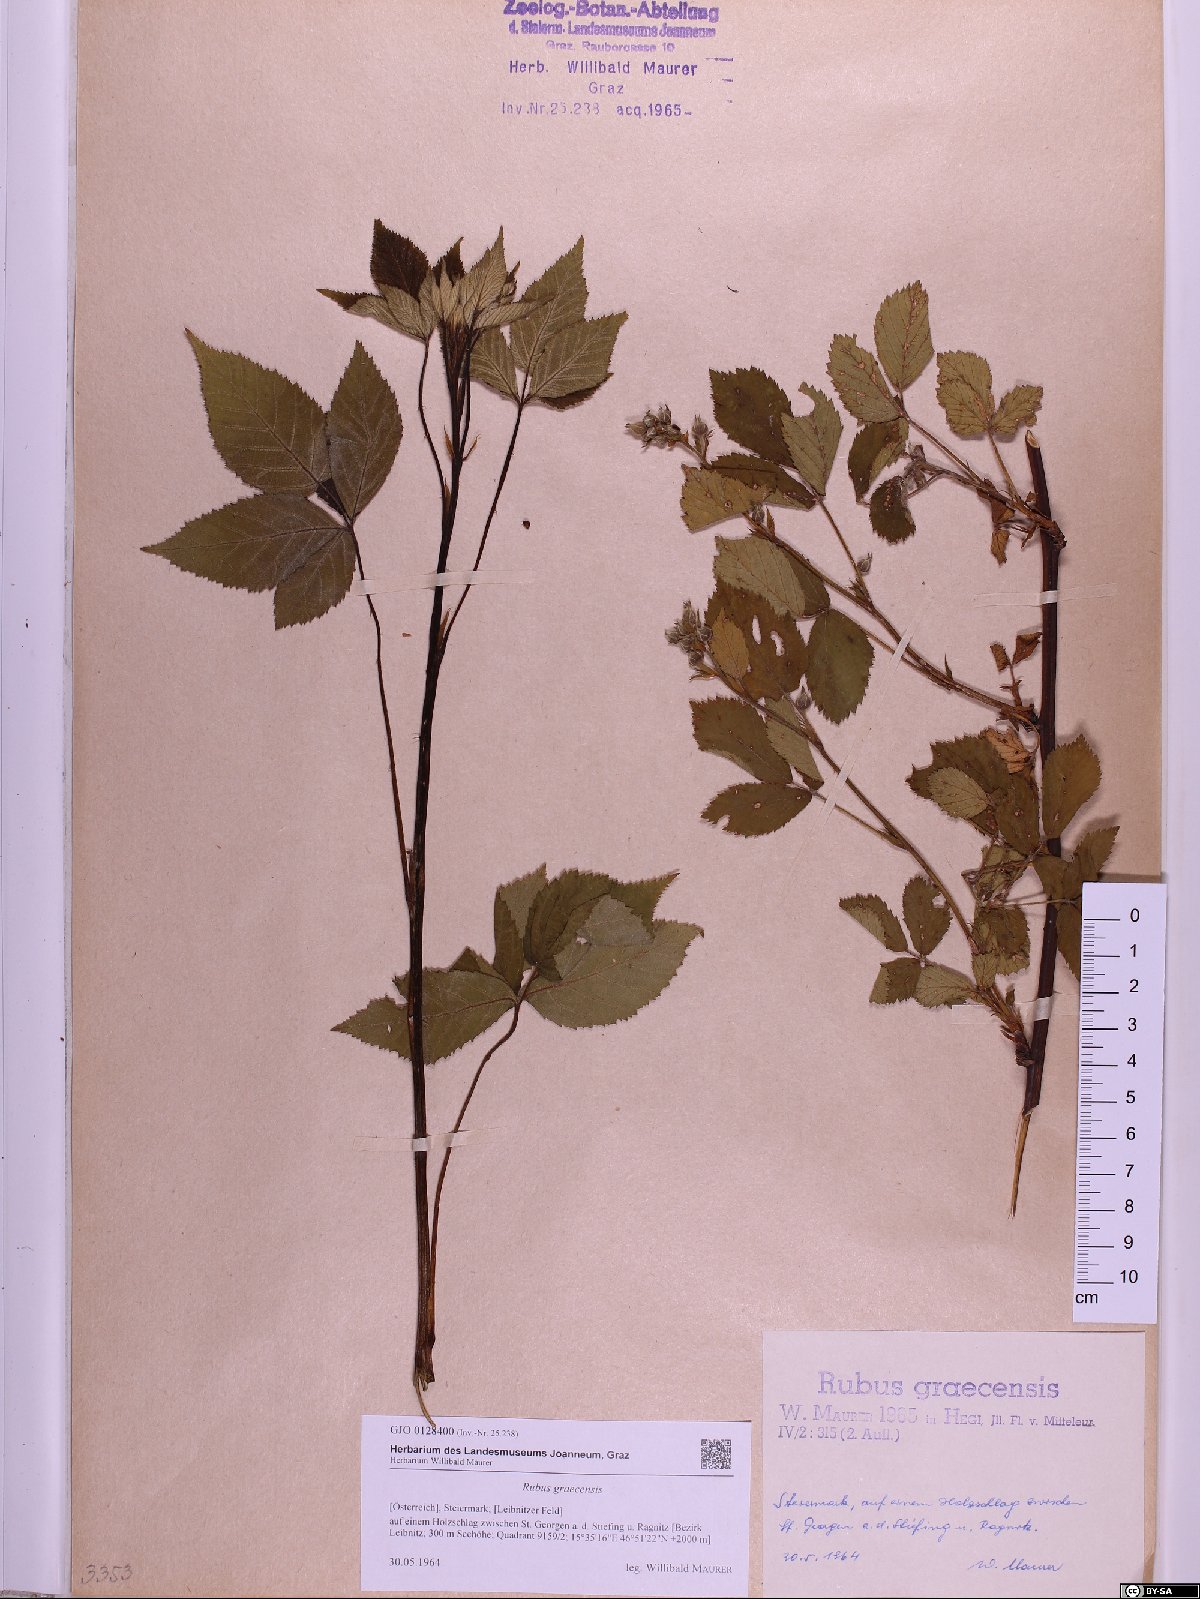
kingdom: Plantae
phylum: Tracheophyta
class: Magnoliopsida
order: Rosales
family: Rosaceae
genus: Rubus
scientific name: Rubus graecensis
